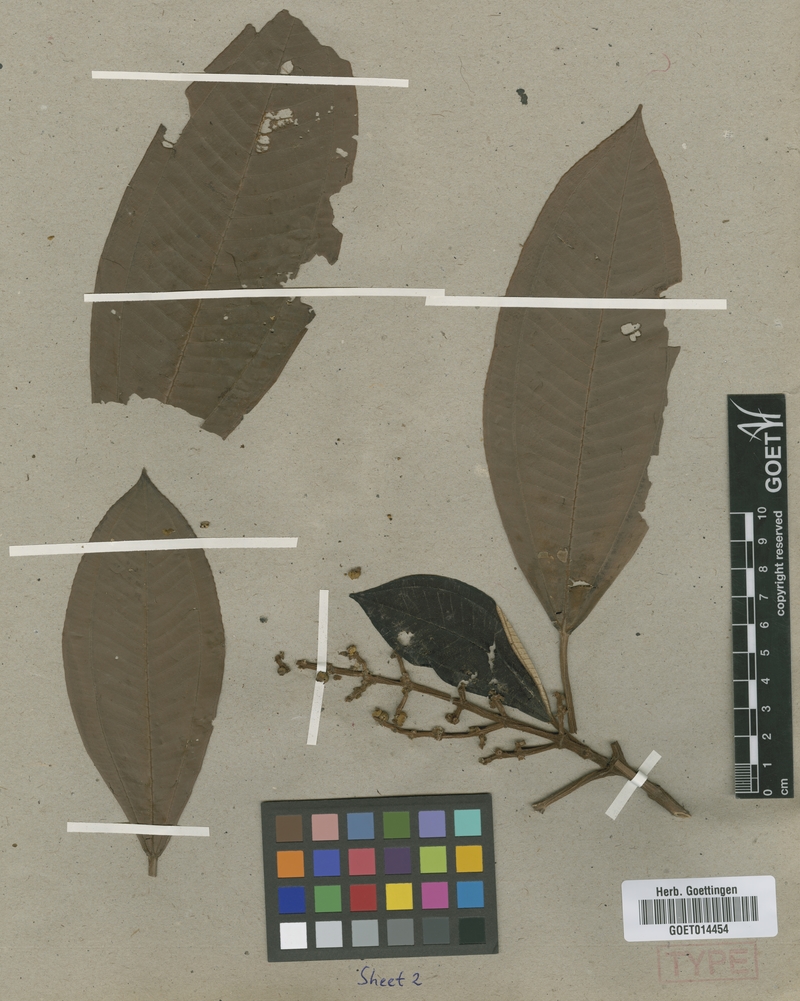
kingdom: Plantae
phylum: Tracheophyta
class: Magnoliopsida
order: Myrtales
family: Melastomataceae
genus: Miconia
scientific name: Miconia elata
